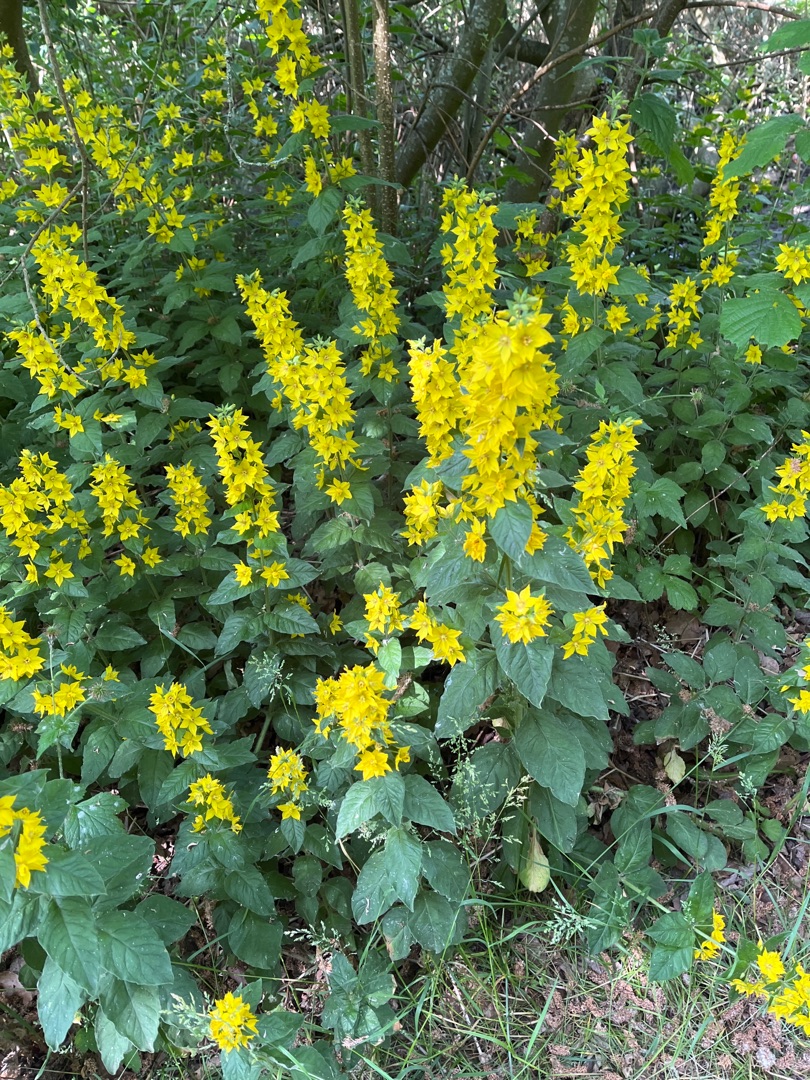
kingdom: Plantae
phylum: Tracheophyta
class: Magnoliopsida
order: Ericales
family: Primulaceae
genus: Lysimachia
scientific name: Lysimachia punctata
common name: Prikbladet fredløs
